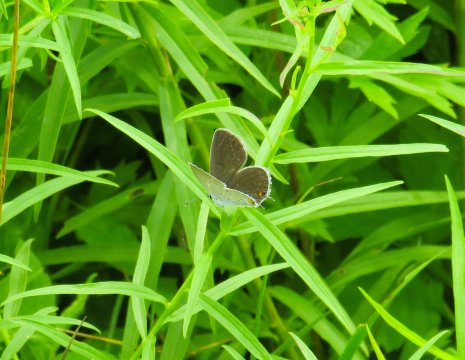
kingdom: Animalia
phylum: Arthropoda
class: Insecta
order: Lepidoptera
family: Lycaenidae
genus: Elkalyce
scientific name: Elkalyce comyntas
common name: Eastern Tailed-Blue
